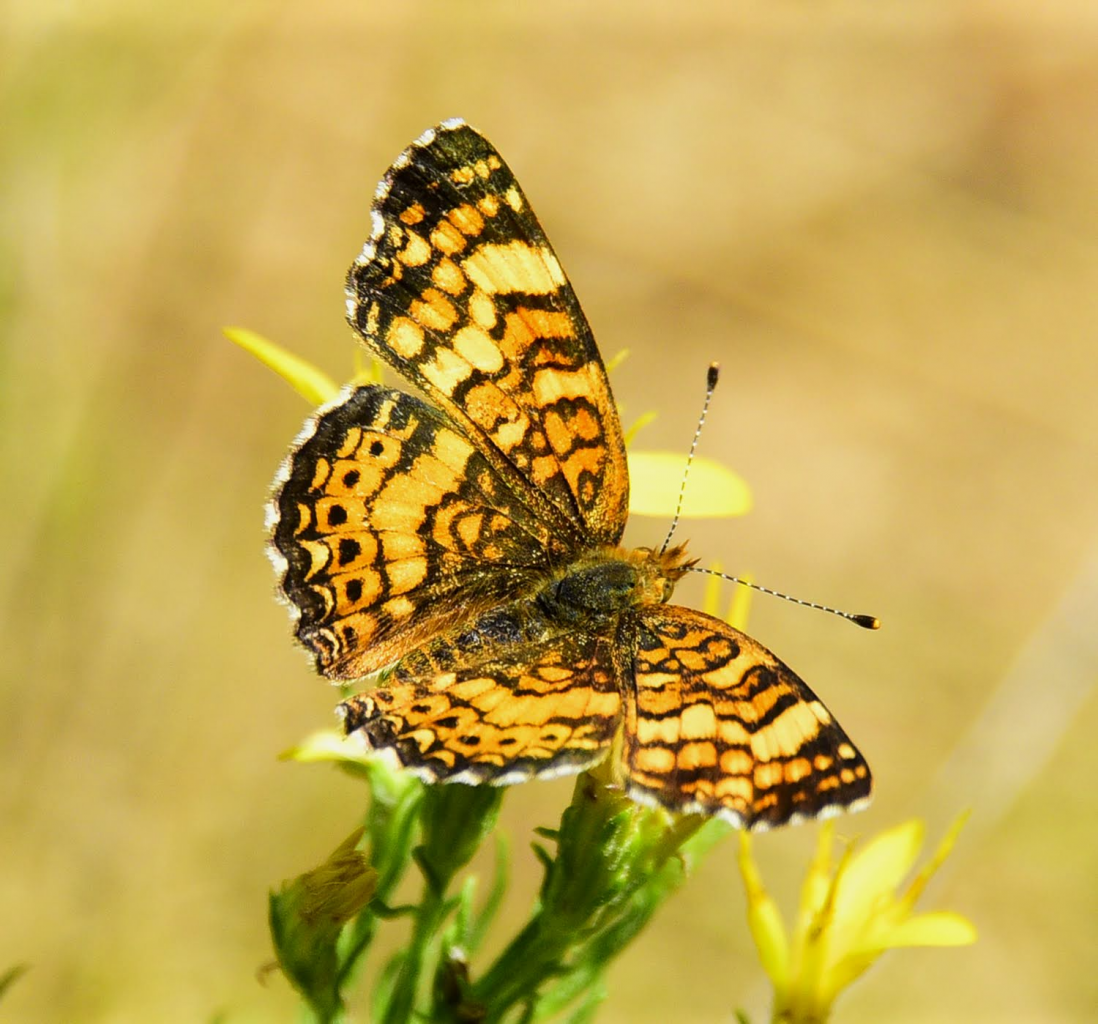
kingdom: Animalia
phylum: Arthropoda
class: Insecta
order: Lepidoptera
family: Nymphalidae
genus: Eresia
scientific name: Eresia aveyrona
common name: Mylitta Crescent
